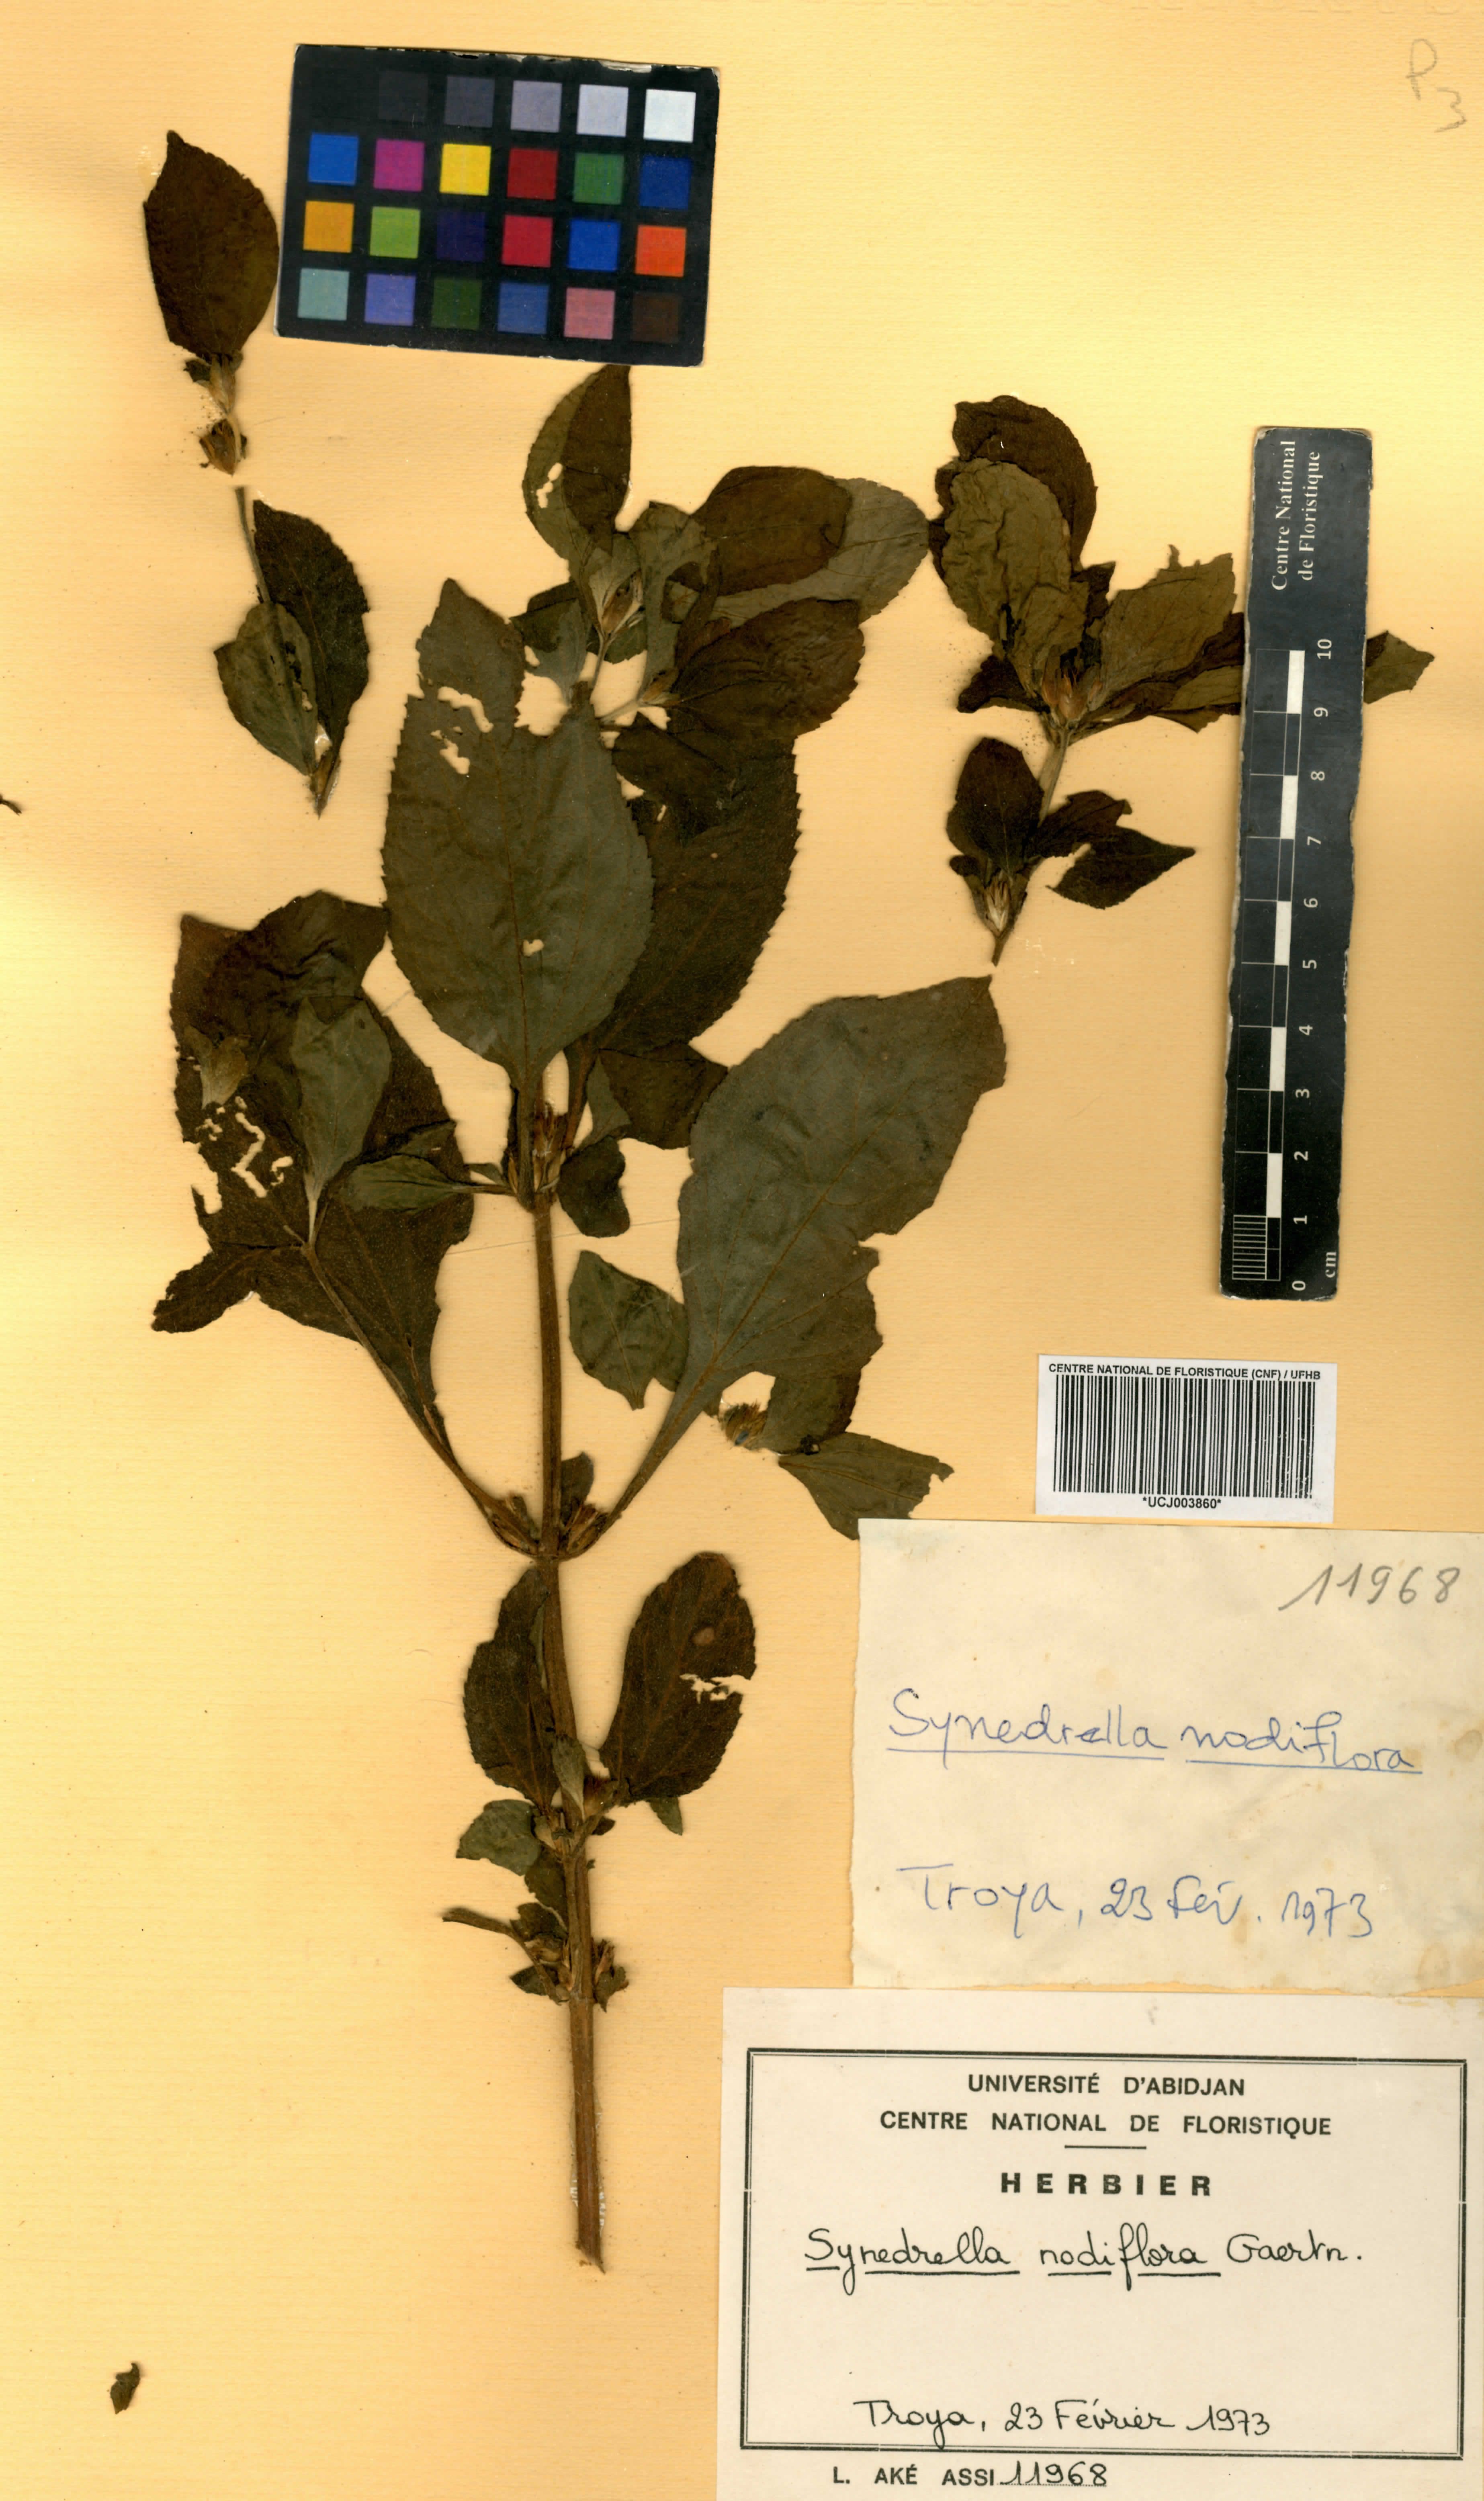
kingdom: Plantae
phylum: Tracheophyta
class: Magnoliopsida
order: Asterales
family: Asteraceae
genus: Synedrella
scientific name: Synedrella nodiflora
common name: Nodeweed
